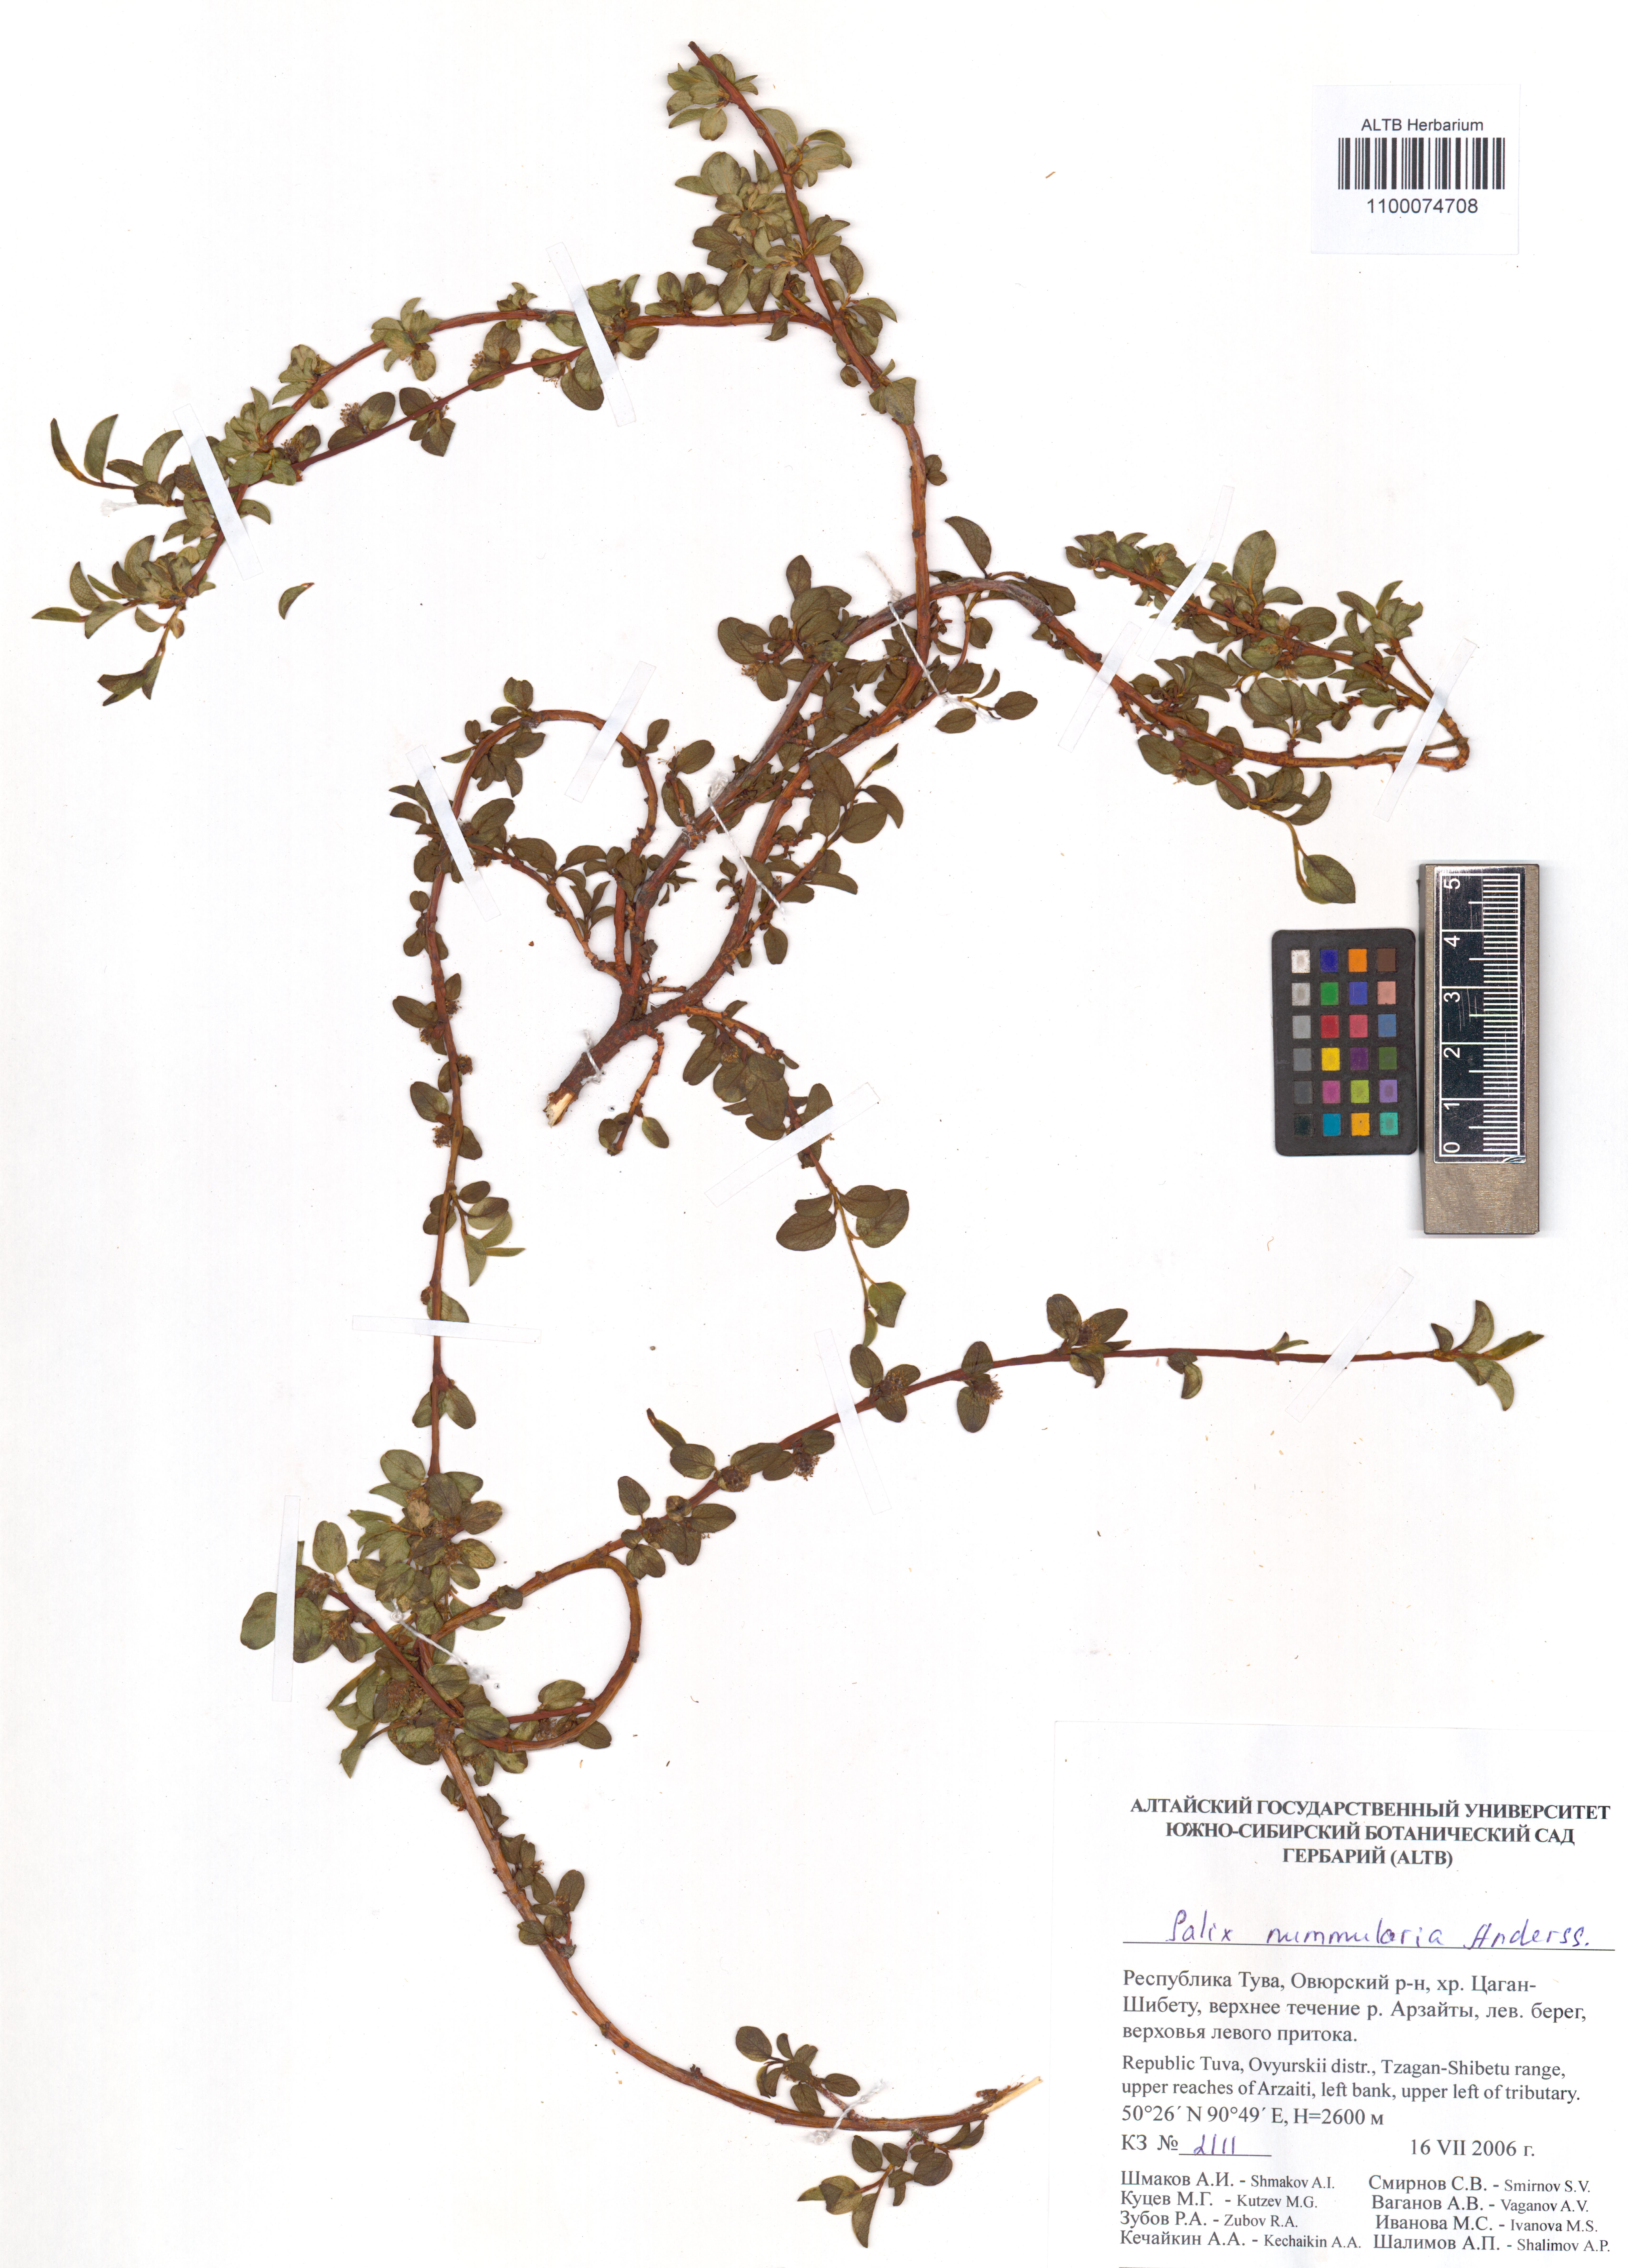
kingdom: Plantae
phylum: Tracheophyta
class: Magnoliopsida
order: Malpighiales
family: Salicaceae
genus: Salix
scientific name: Salix nummularia
